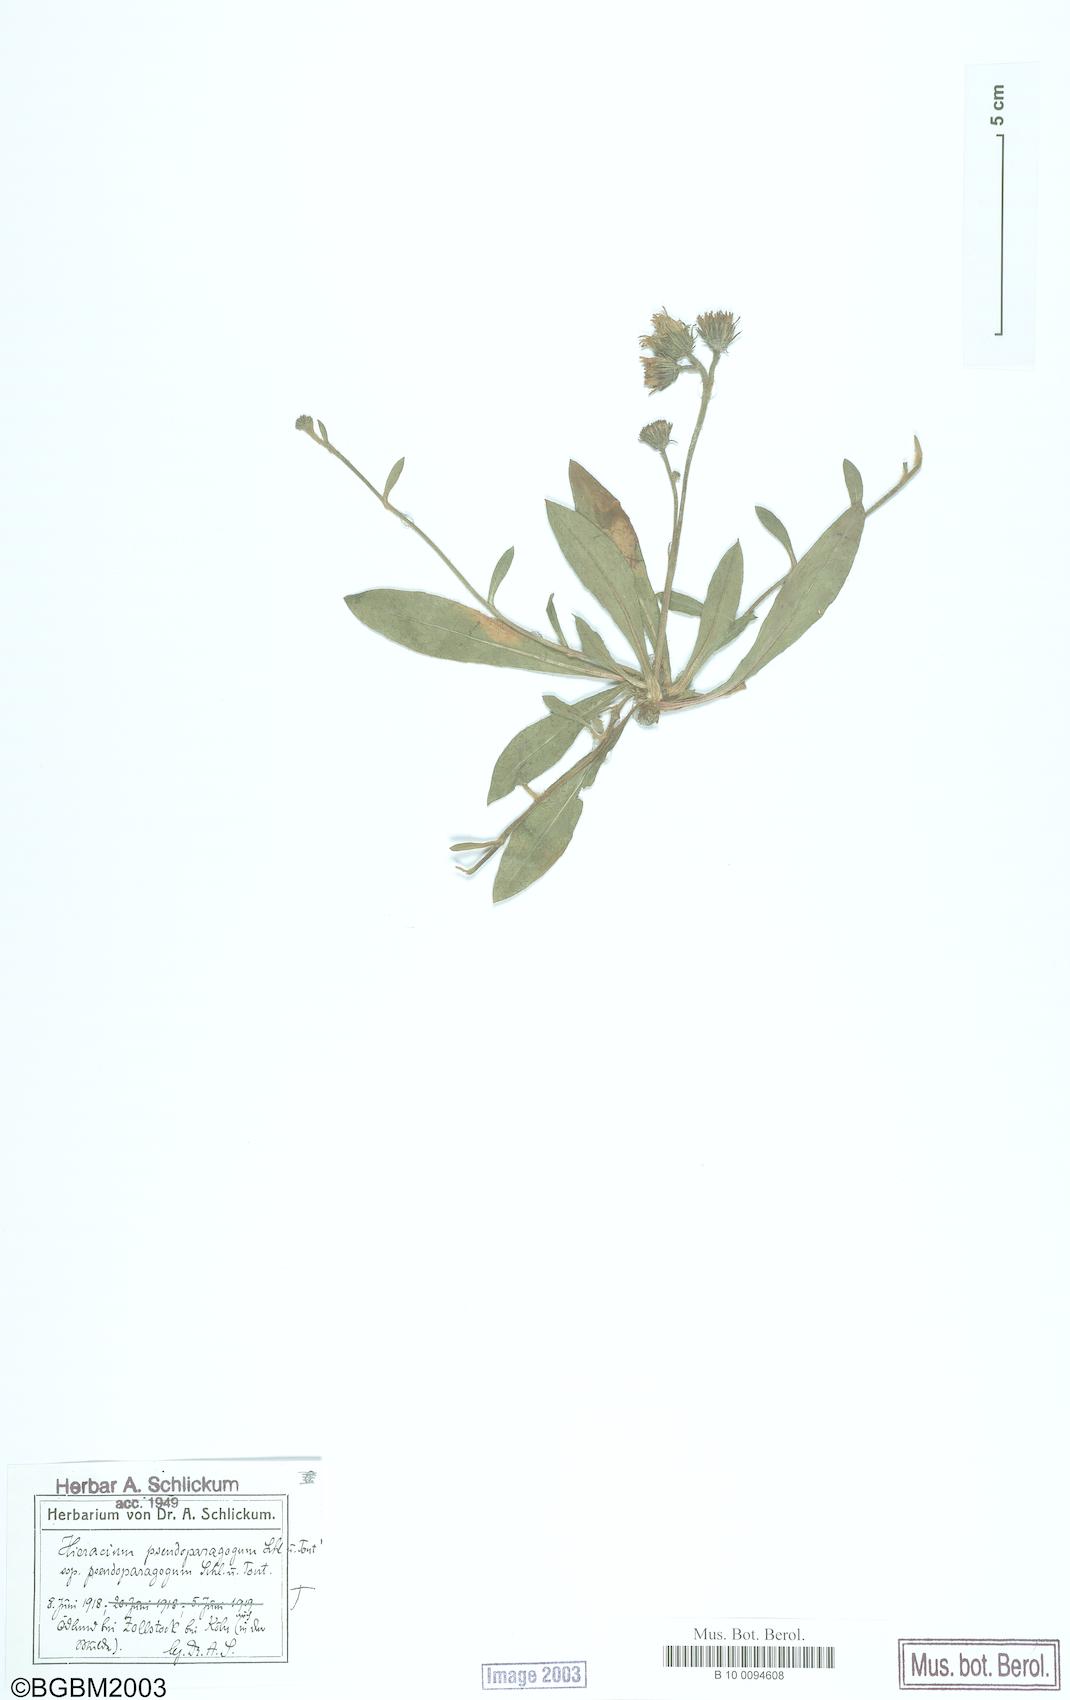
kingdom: Plantae
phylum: Tracheophyta
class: Magnoliopsida
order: Asterales
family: Asteraceae
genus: Pilosella
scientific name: Pilosella pseudoparagoga
